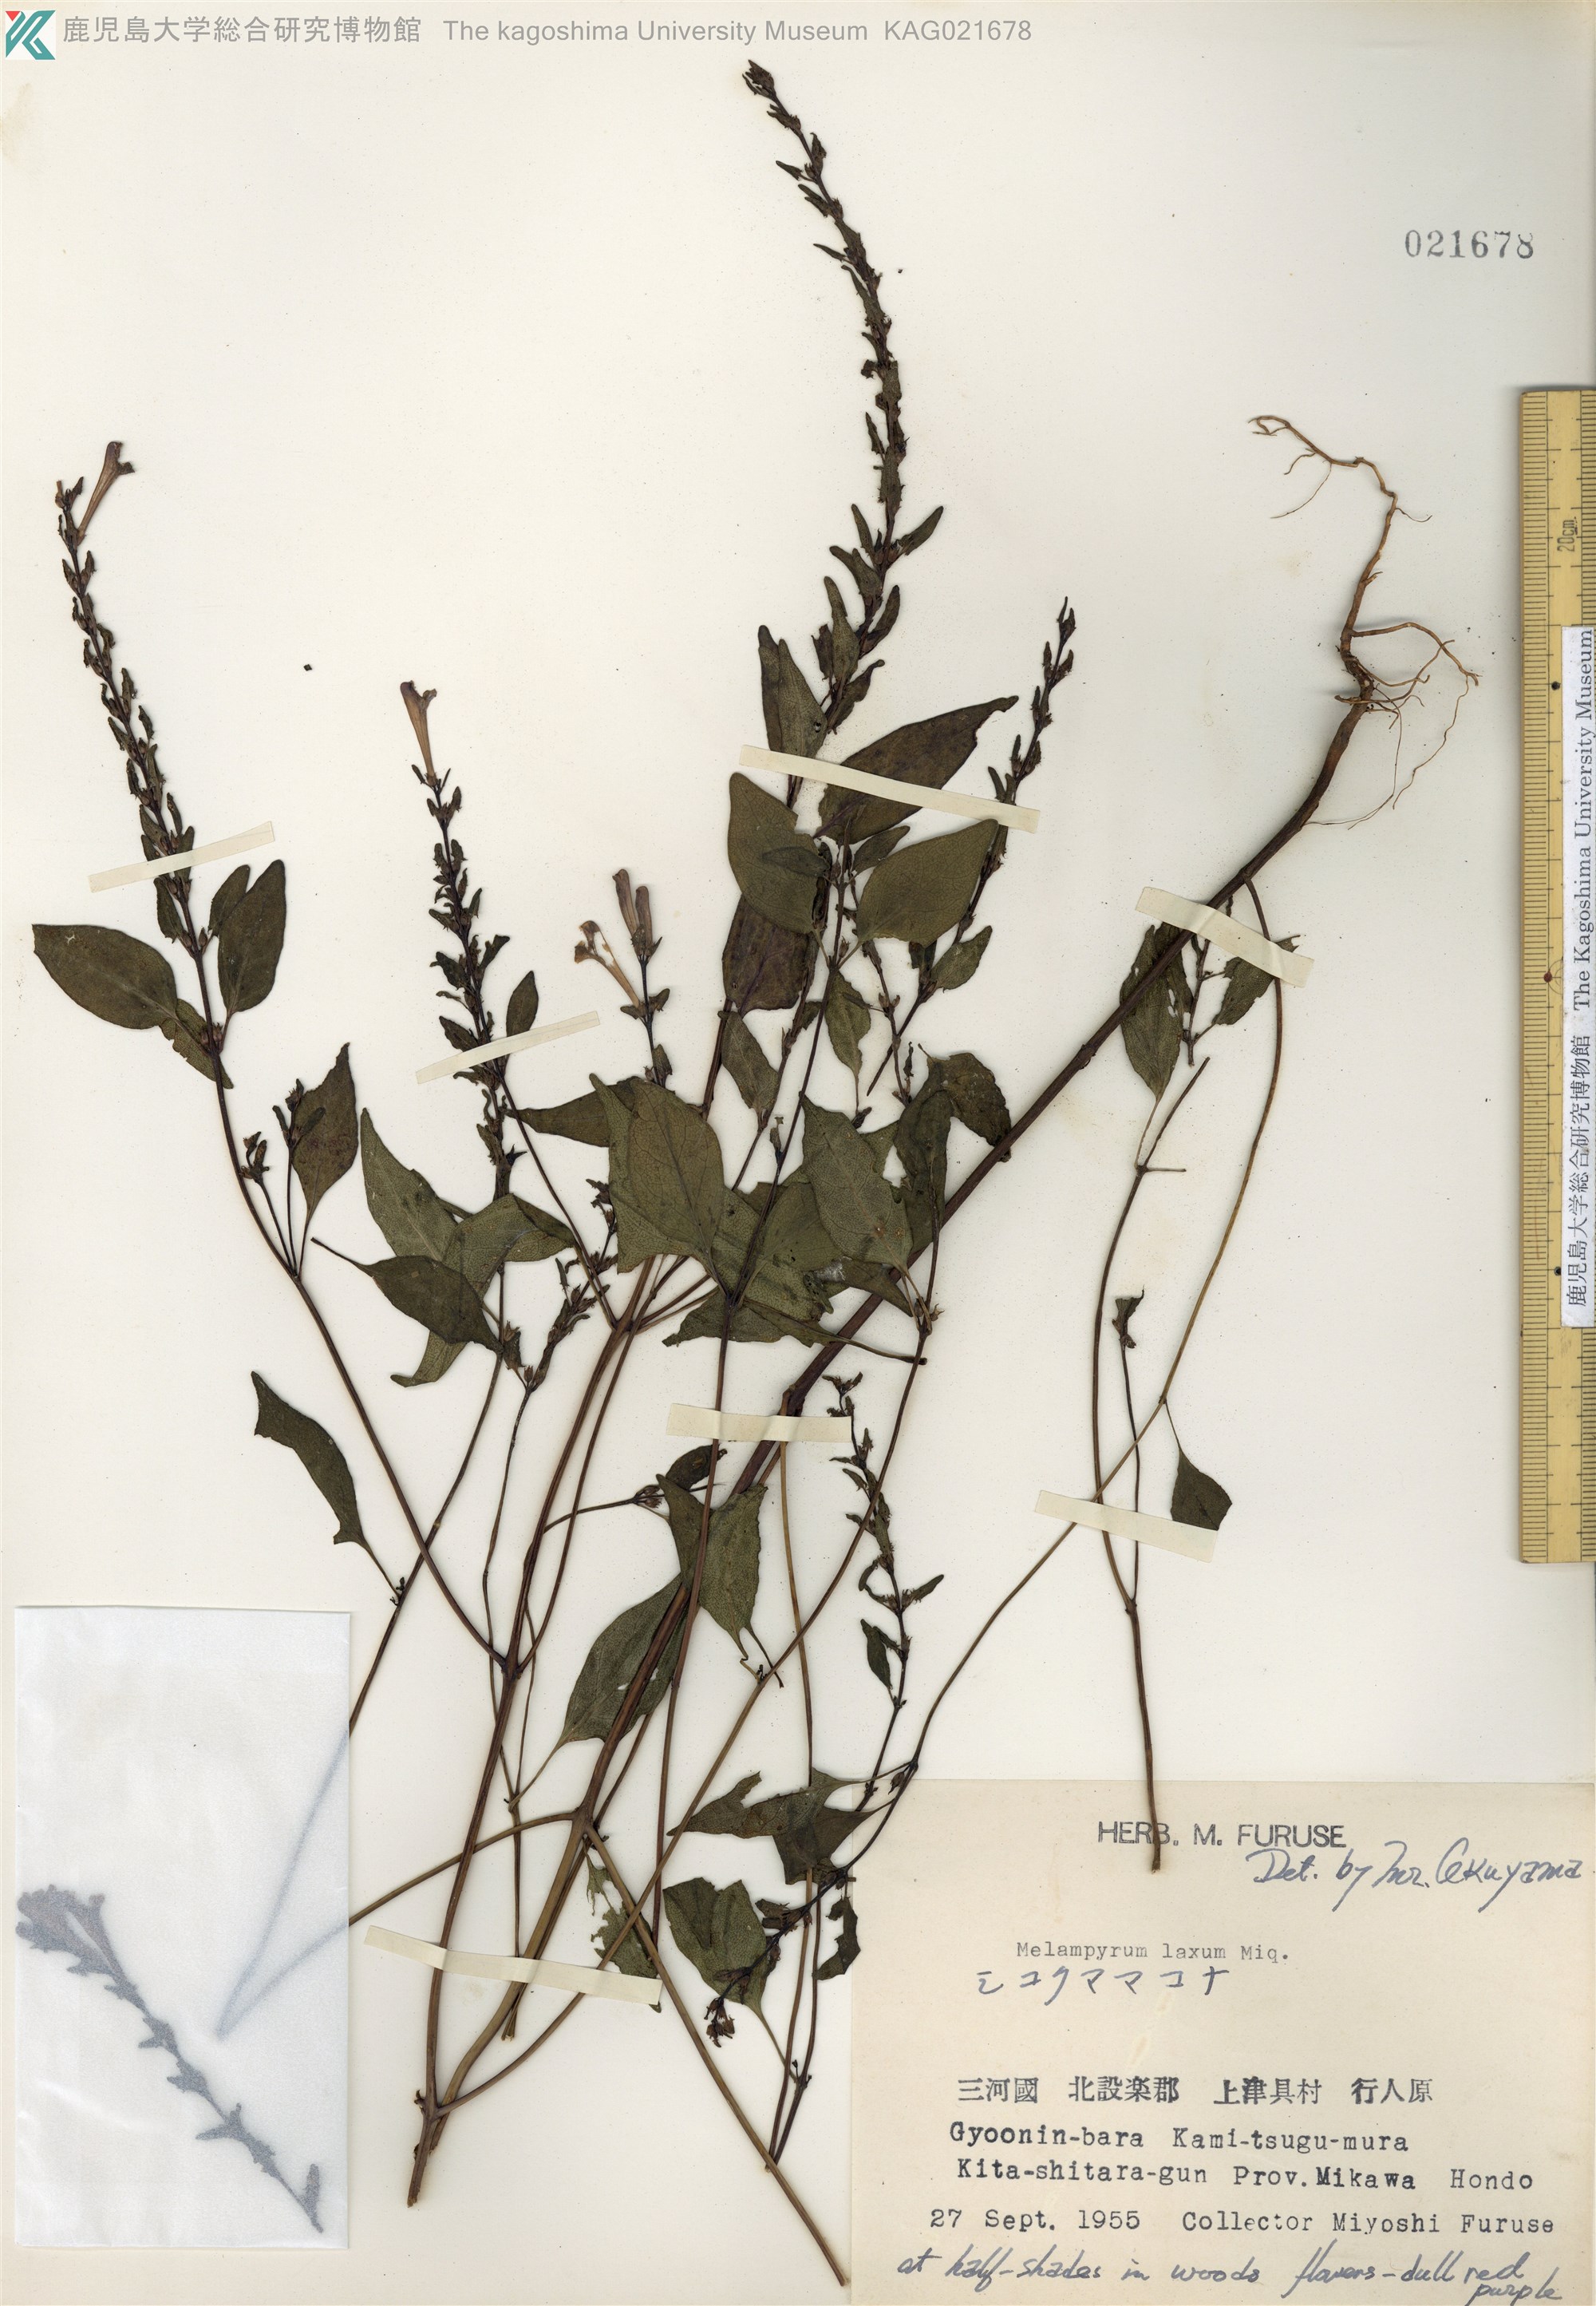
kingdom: Plantae
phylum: Tracheophyta
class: Magnoliopsida
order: Lamiales
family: Orobanchaceae
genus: Melampyrum
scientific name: Melampyrum laxum
